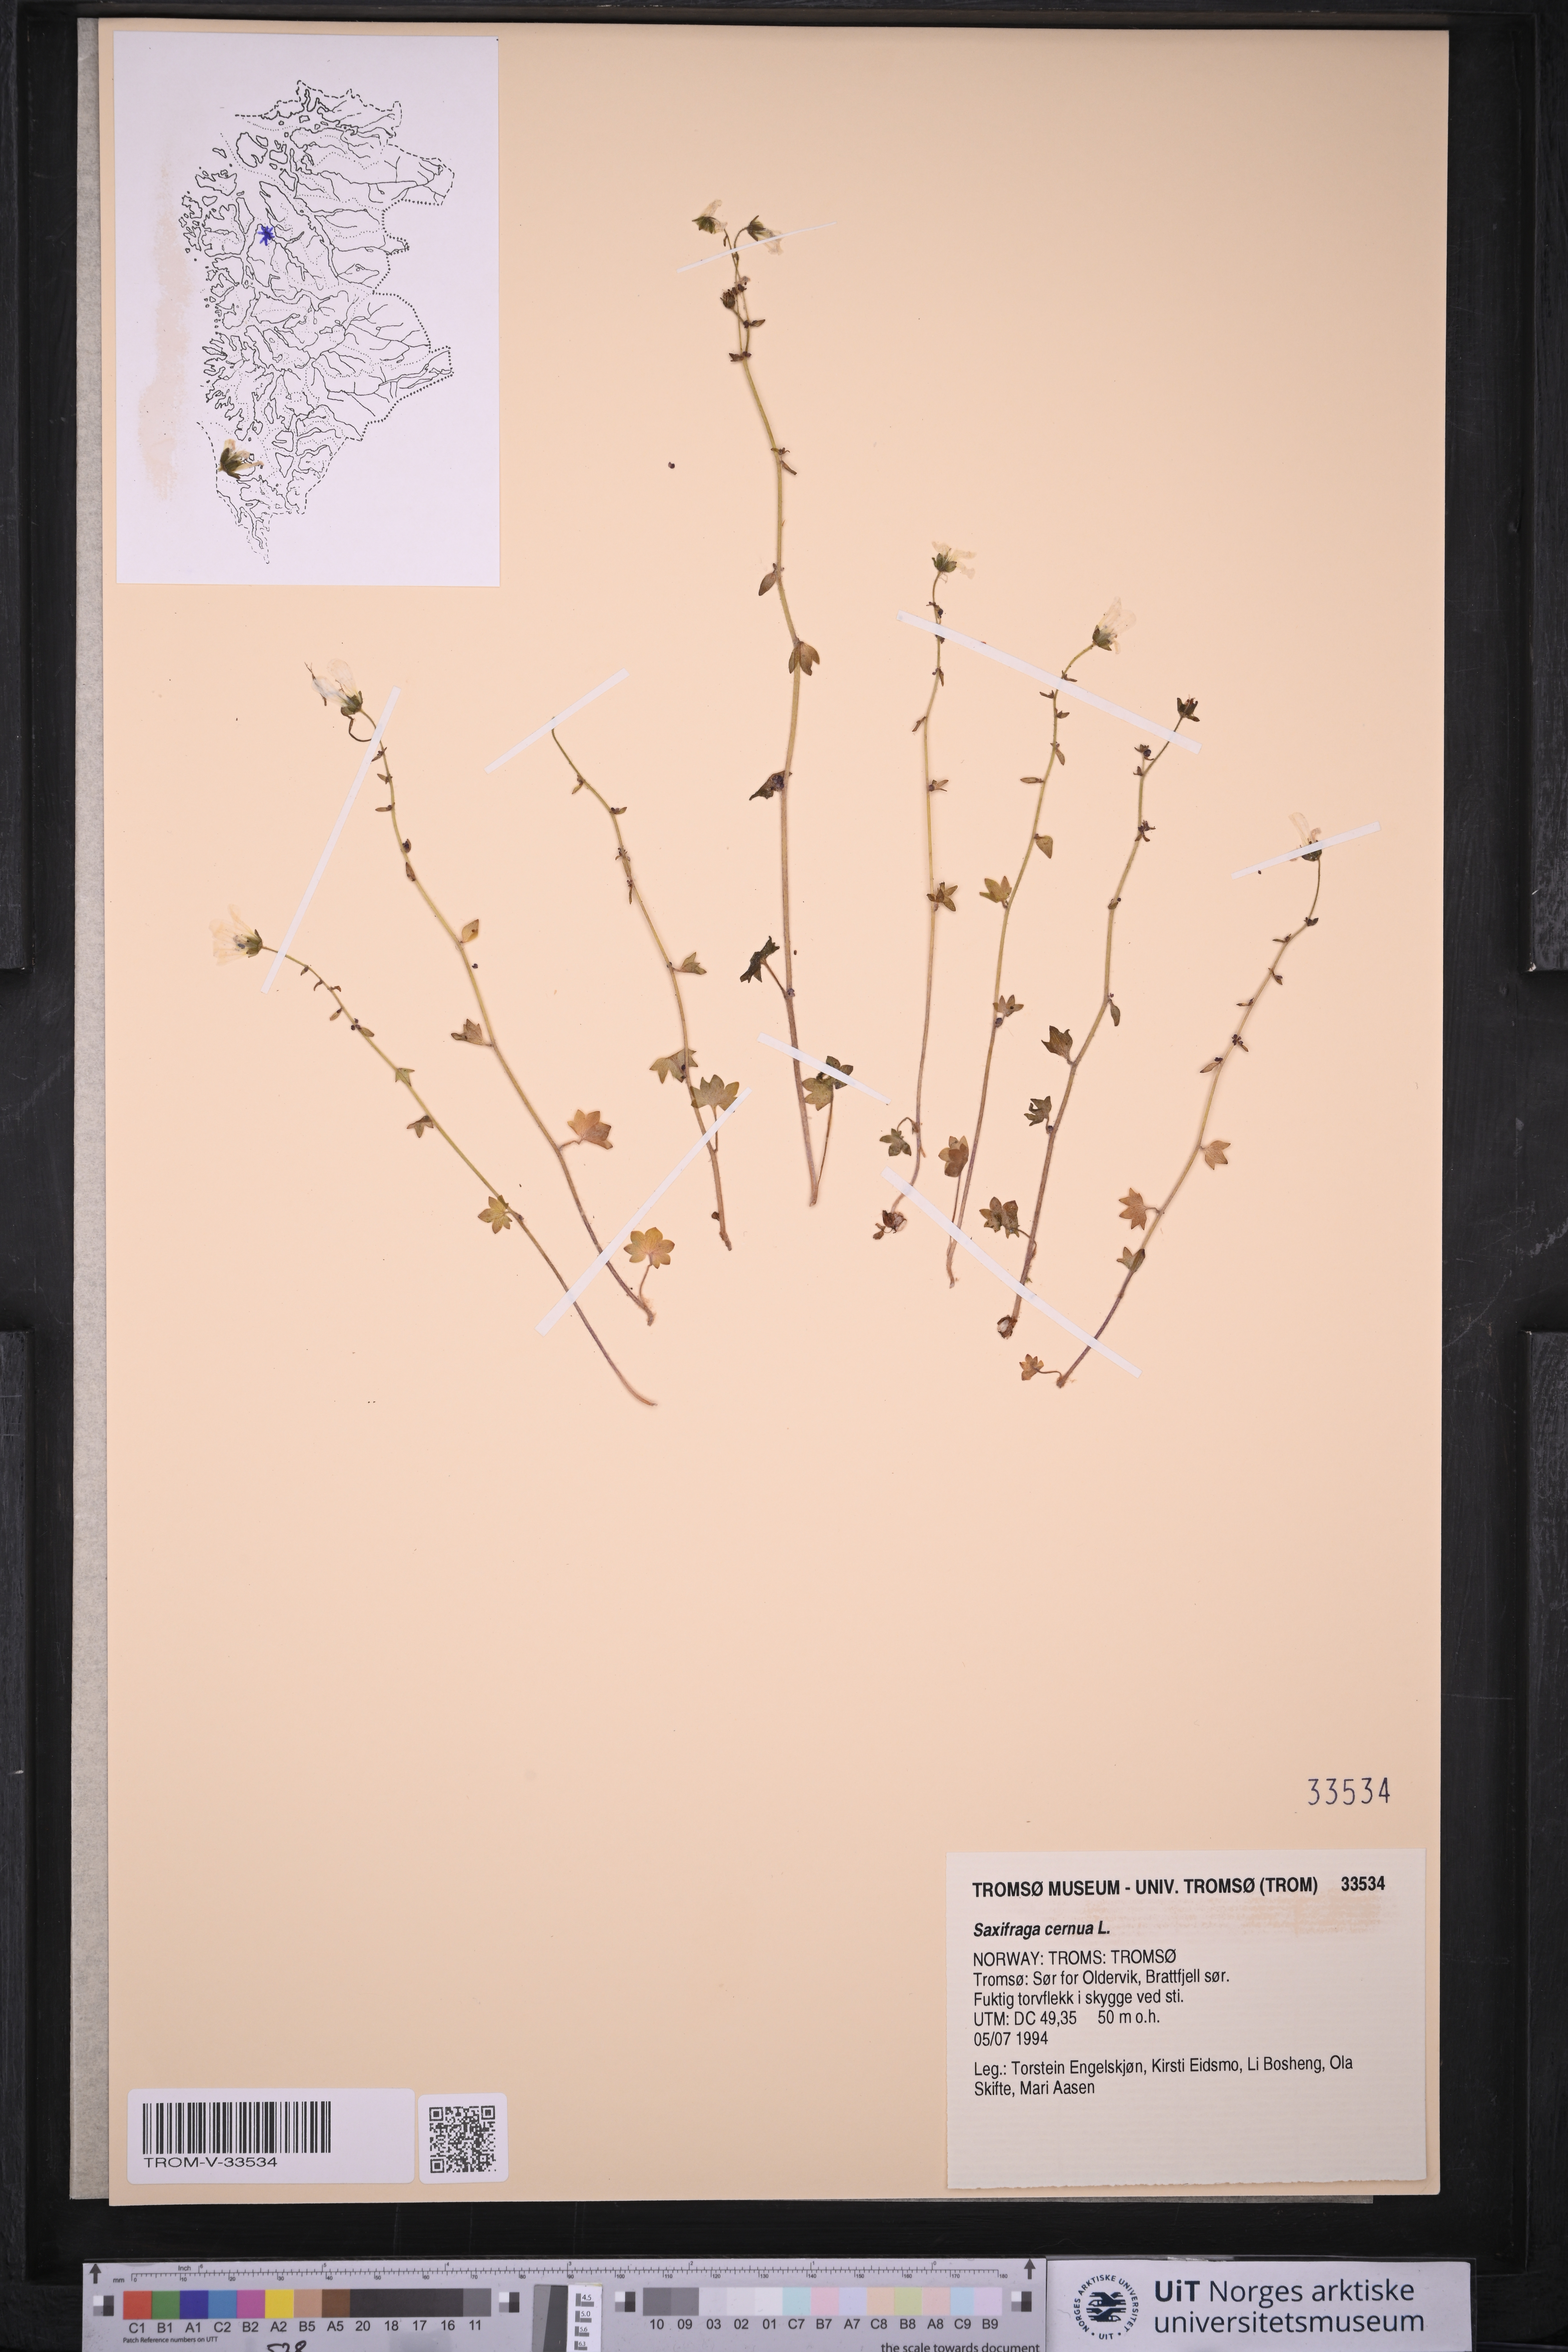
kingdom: Plantae
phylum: Tracheophyta
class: Magnoliopsida
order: Saxifragales
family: Saxifragaceae
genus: Saxifraga
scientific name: Saxifraga cernua
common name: Drooping saxifrage
